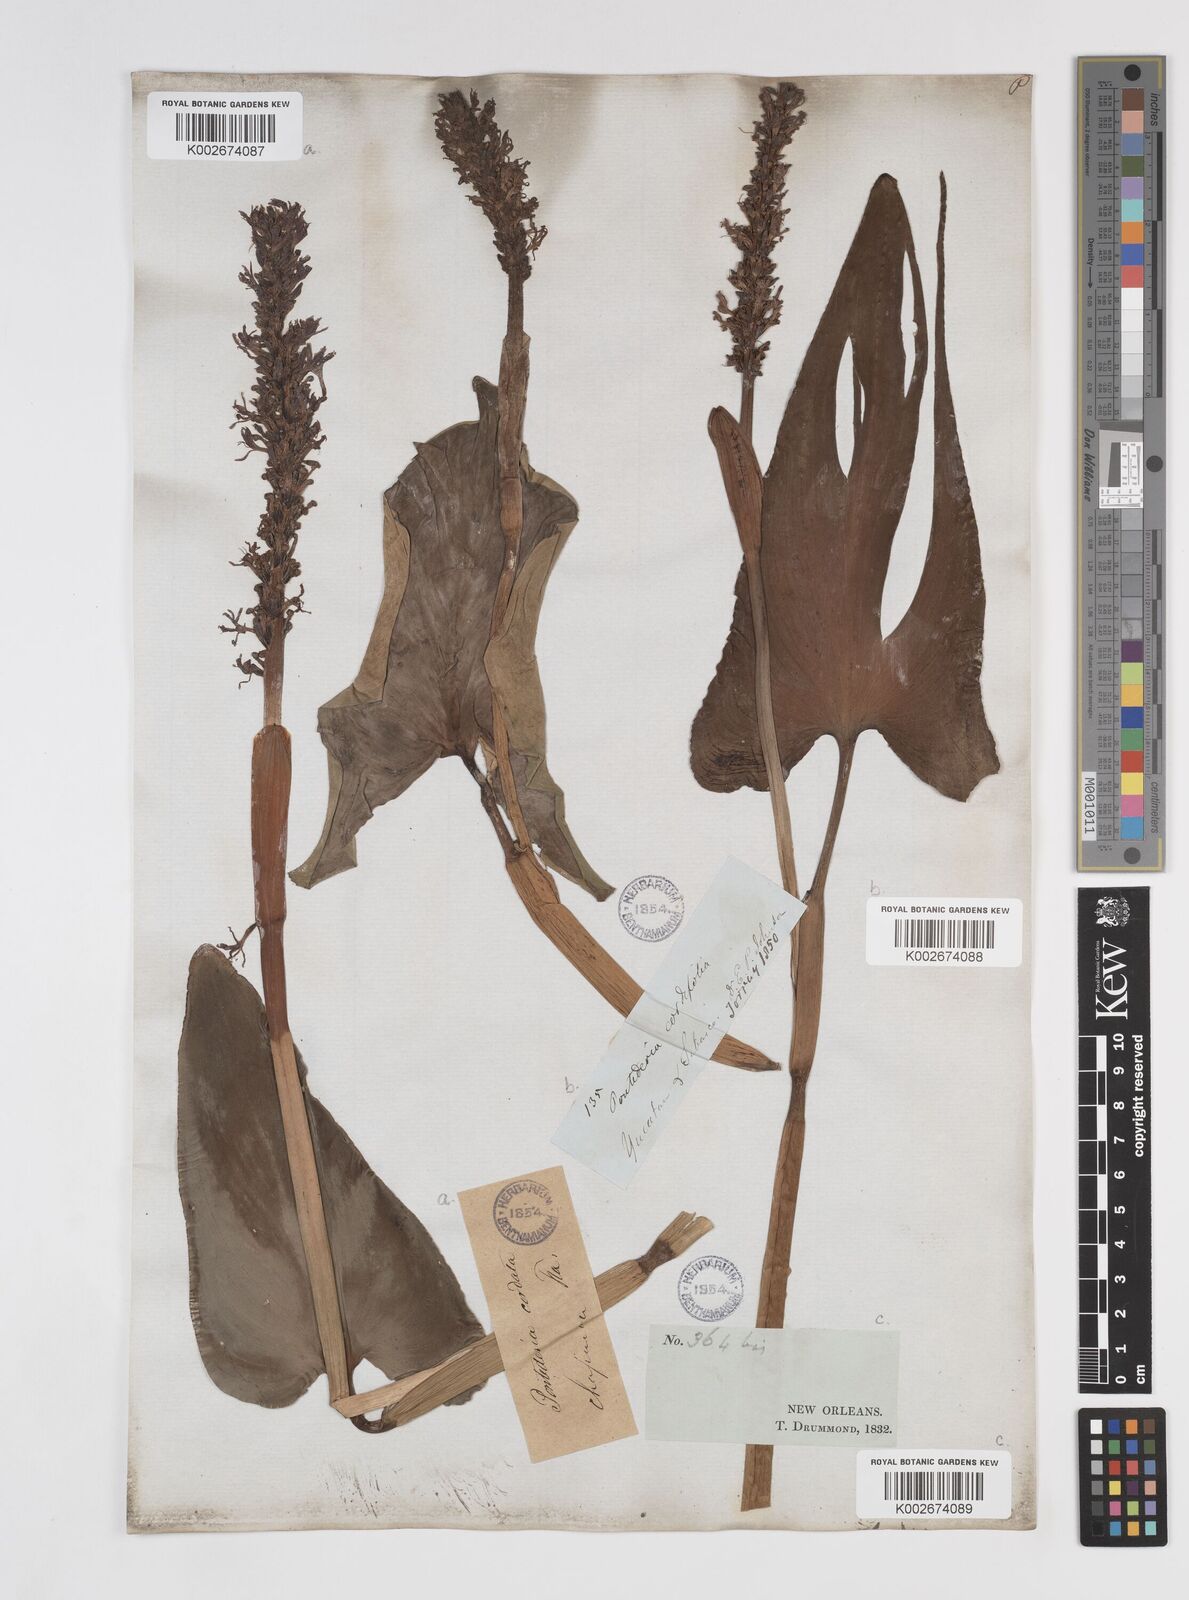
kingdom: Plantae
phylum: Tracheophyta
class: Liliopsida
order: Commelinales
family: Pontederiaceae
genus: Pontederia
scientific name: Pontederia cordata
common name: Pickerelweed
